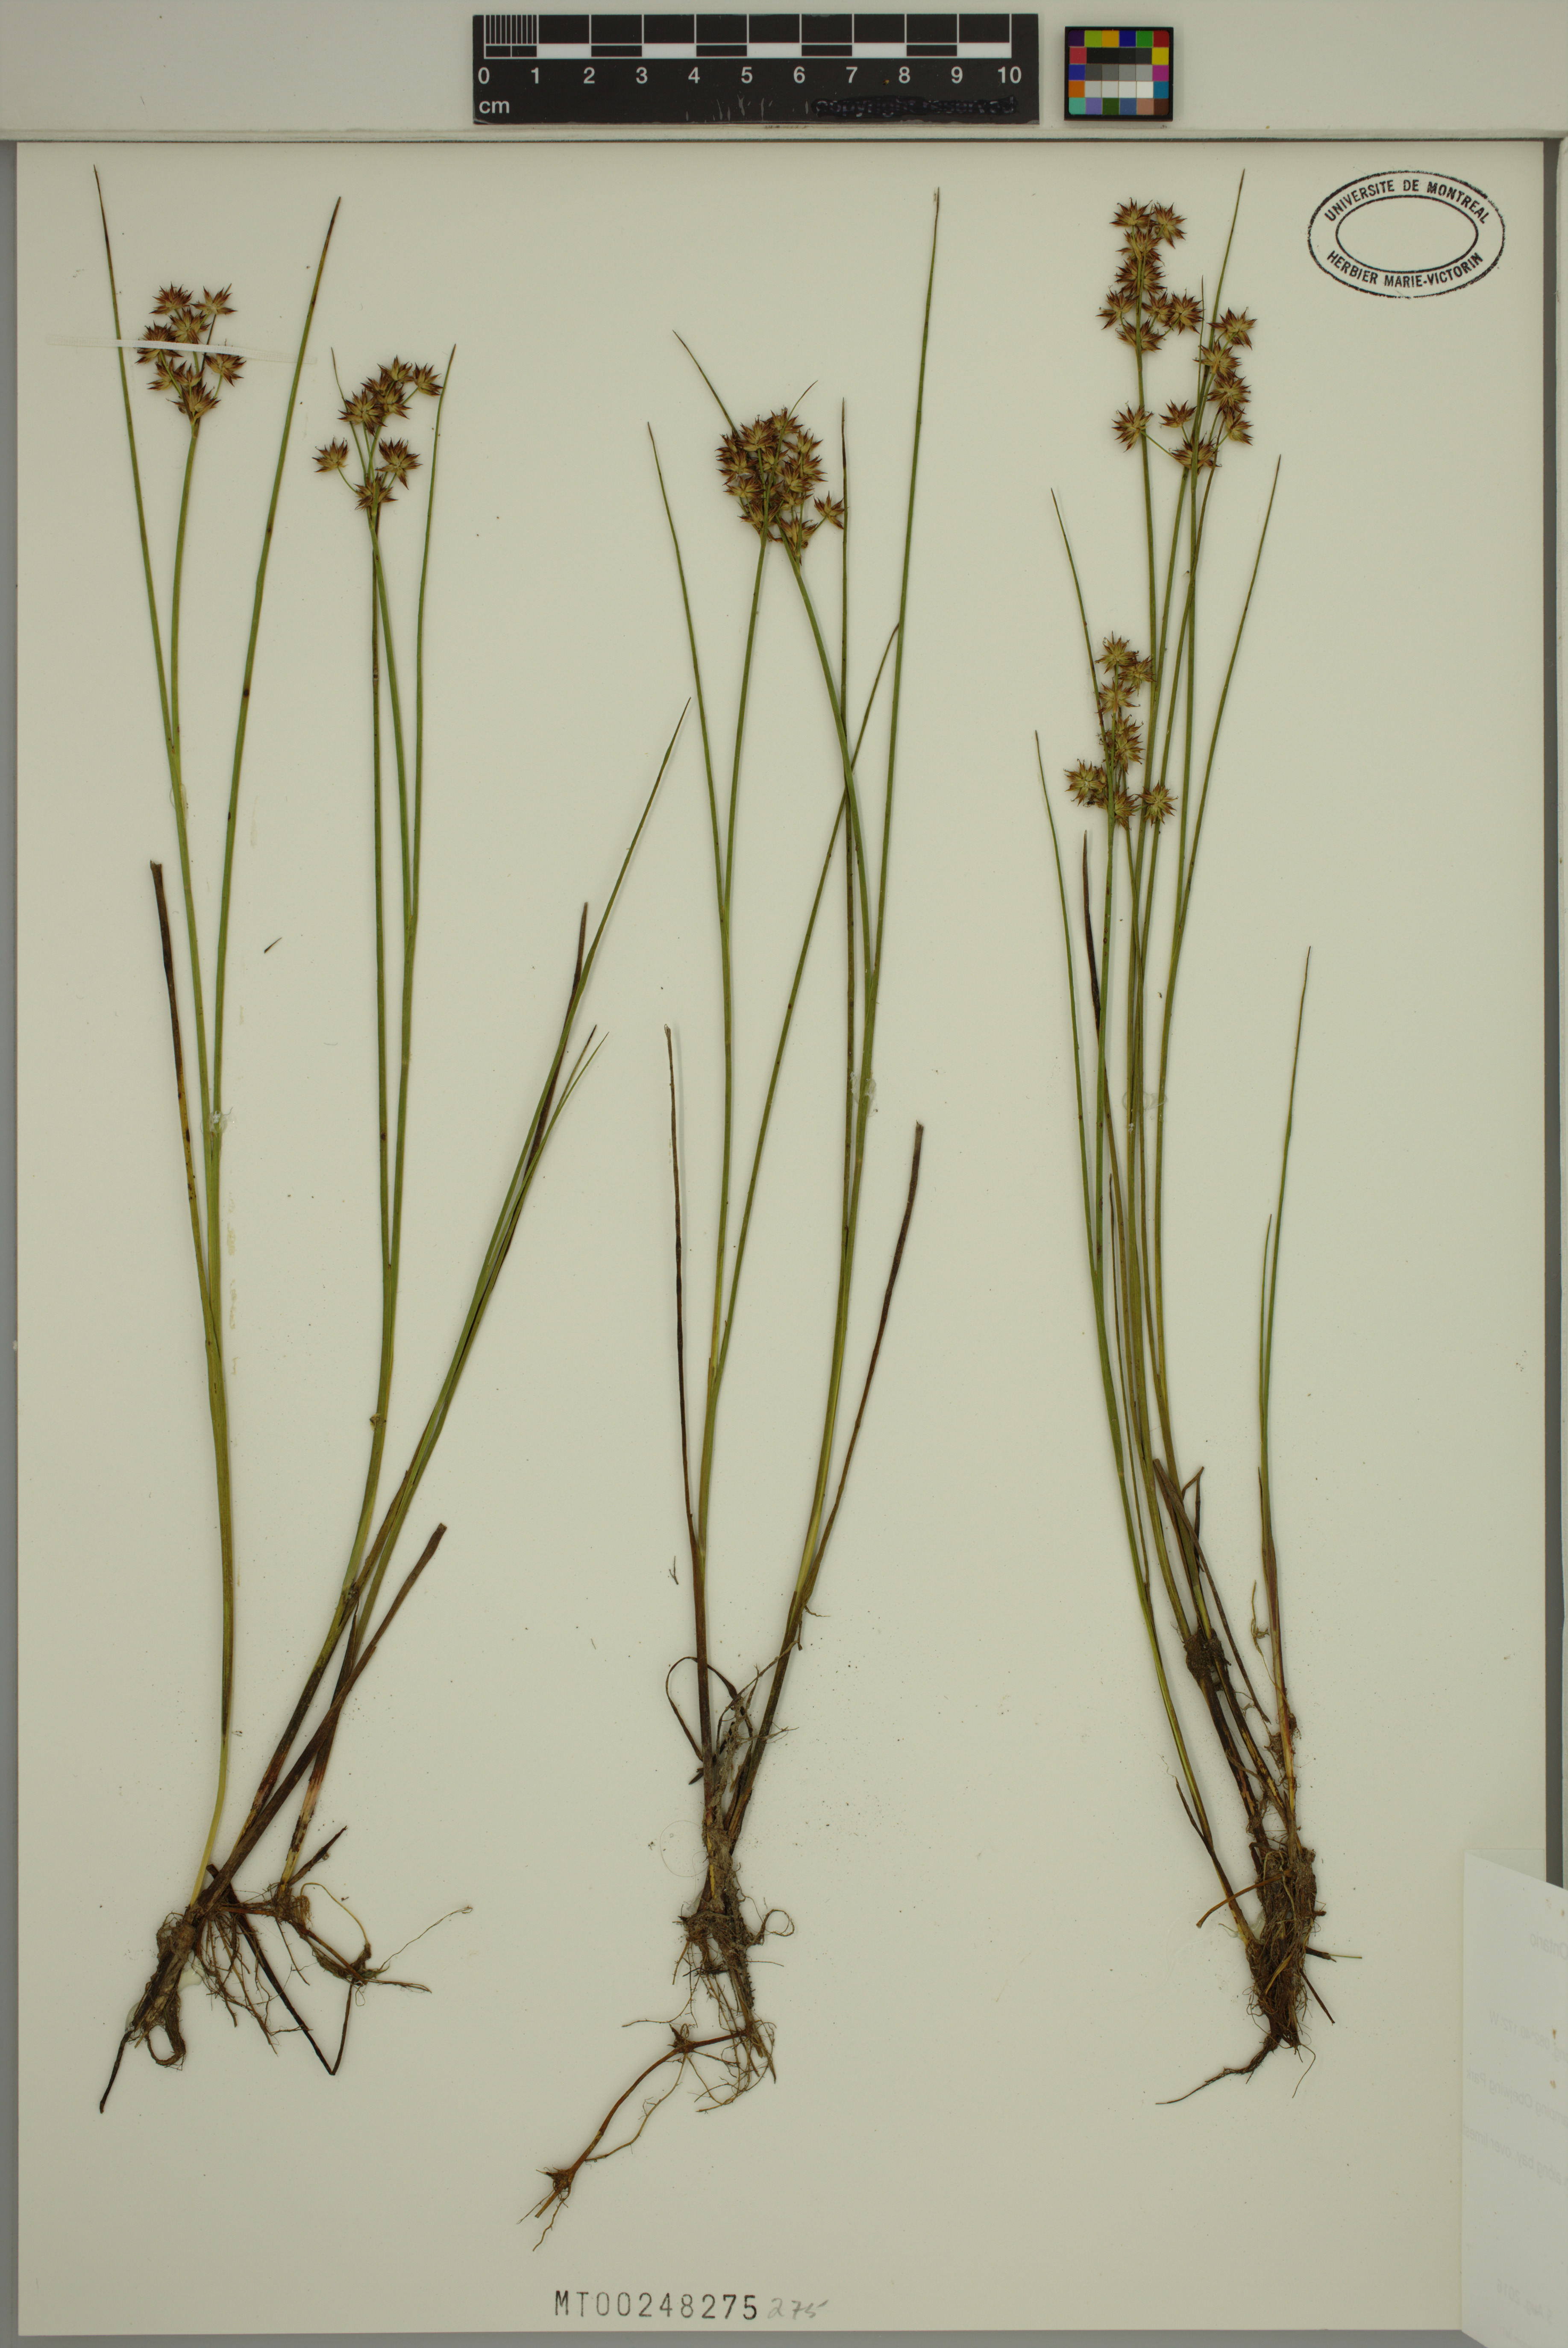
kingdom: Plantae
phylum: Tracheophyta
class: Liliopsida
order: Poales
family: Juncaceae
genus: Juncus
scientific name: Juncus nodosus
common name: Knotted rush
